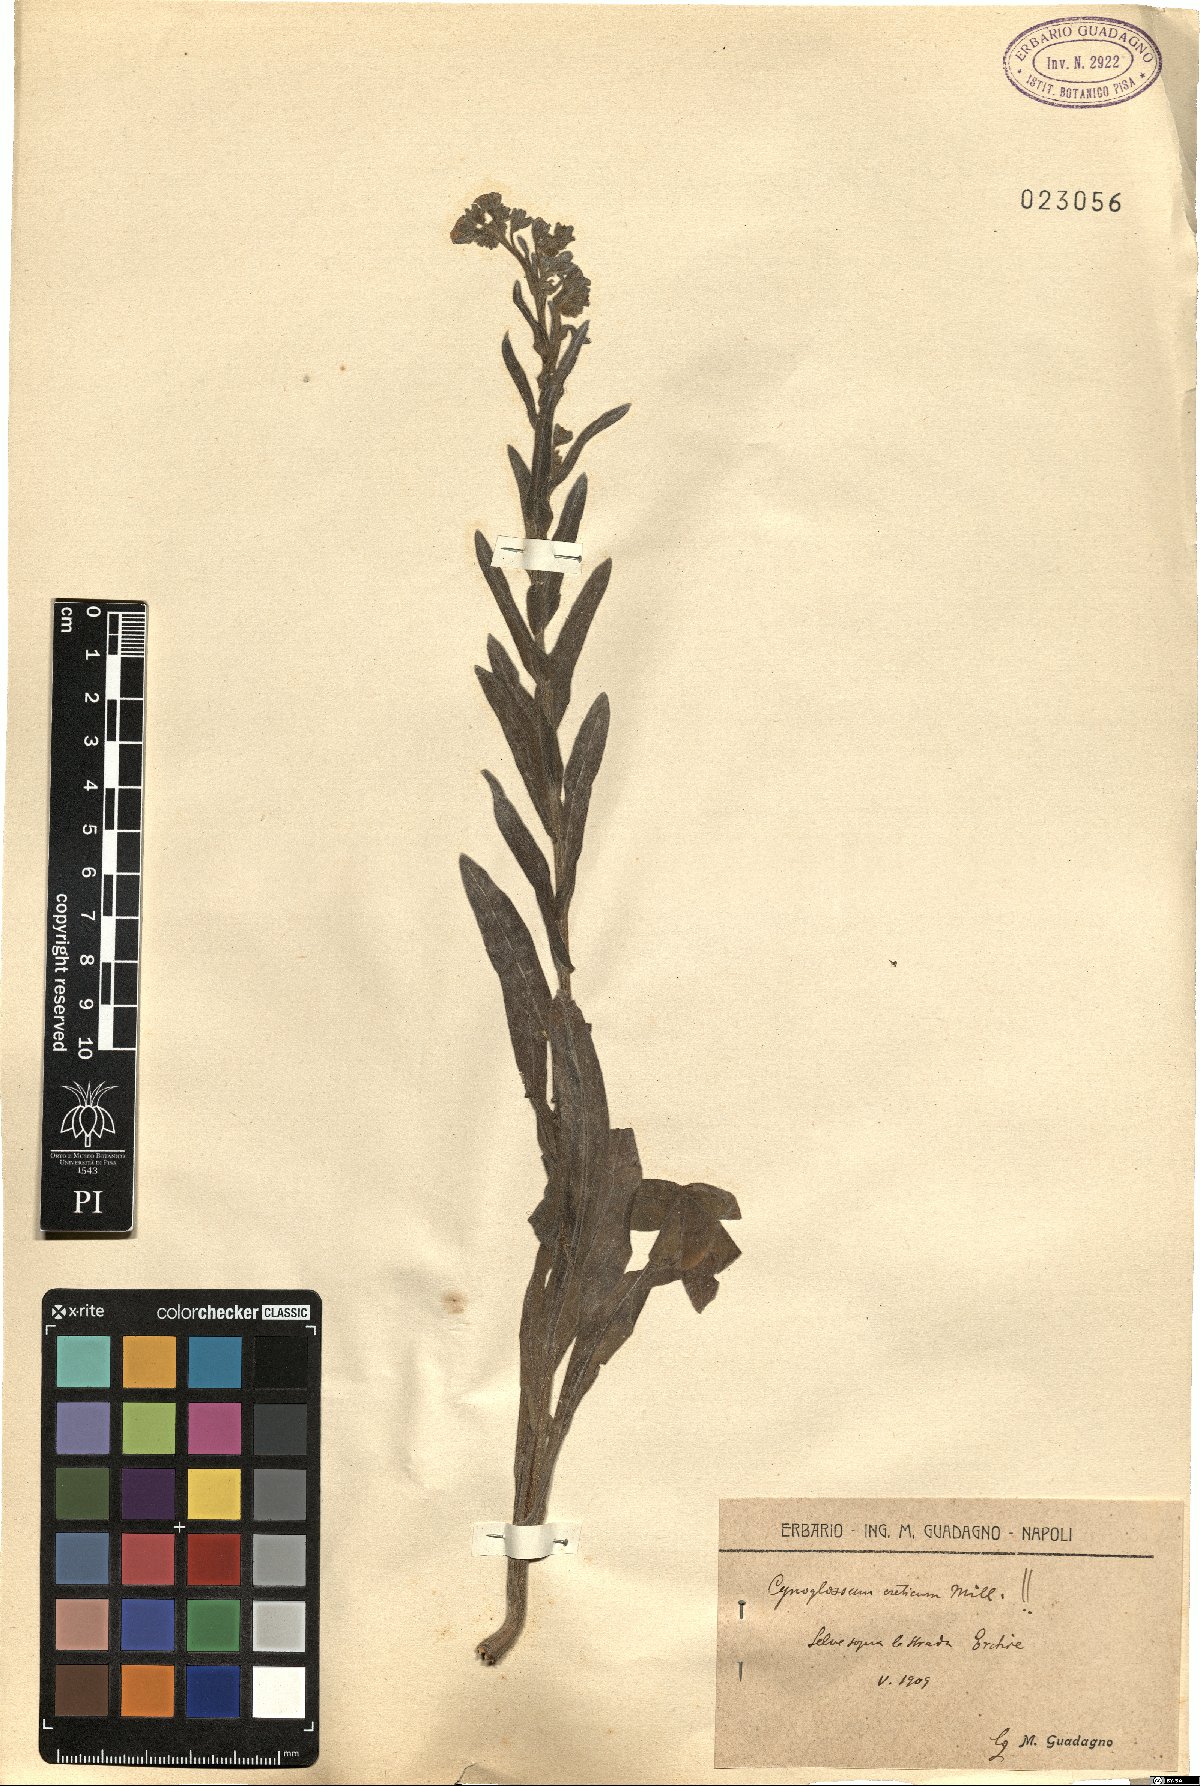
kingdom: Plantae
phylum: Tracheophyta
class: Magnoliopsida
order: Boraginales
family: Boraginaceae
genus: Cynoglossum
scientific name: Cynoglossum creticum
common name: Blue hound's tongue
